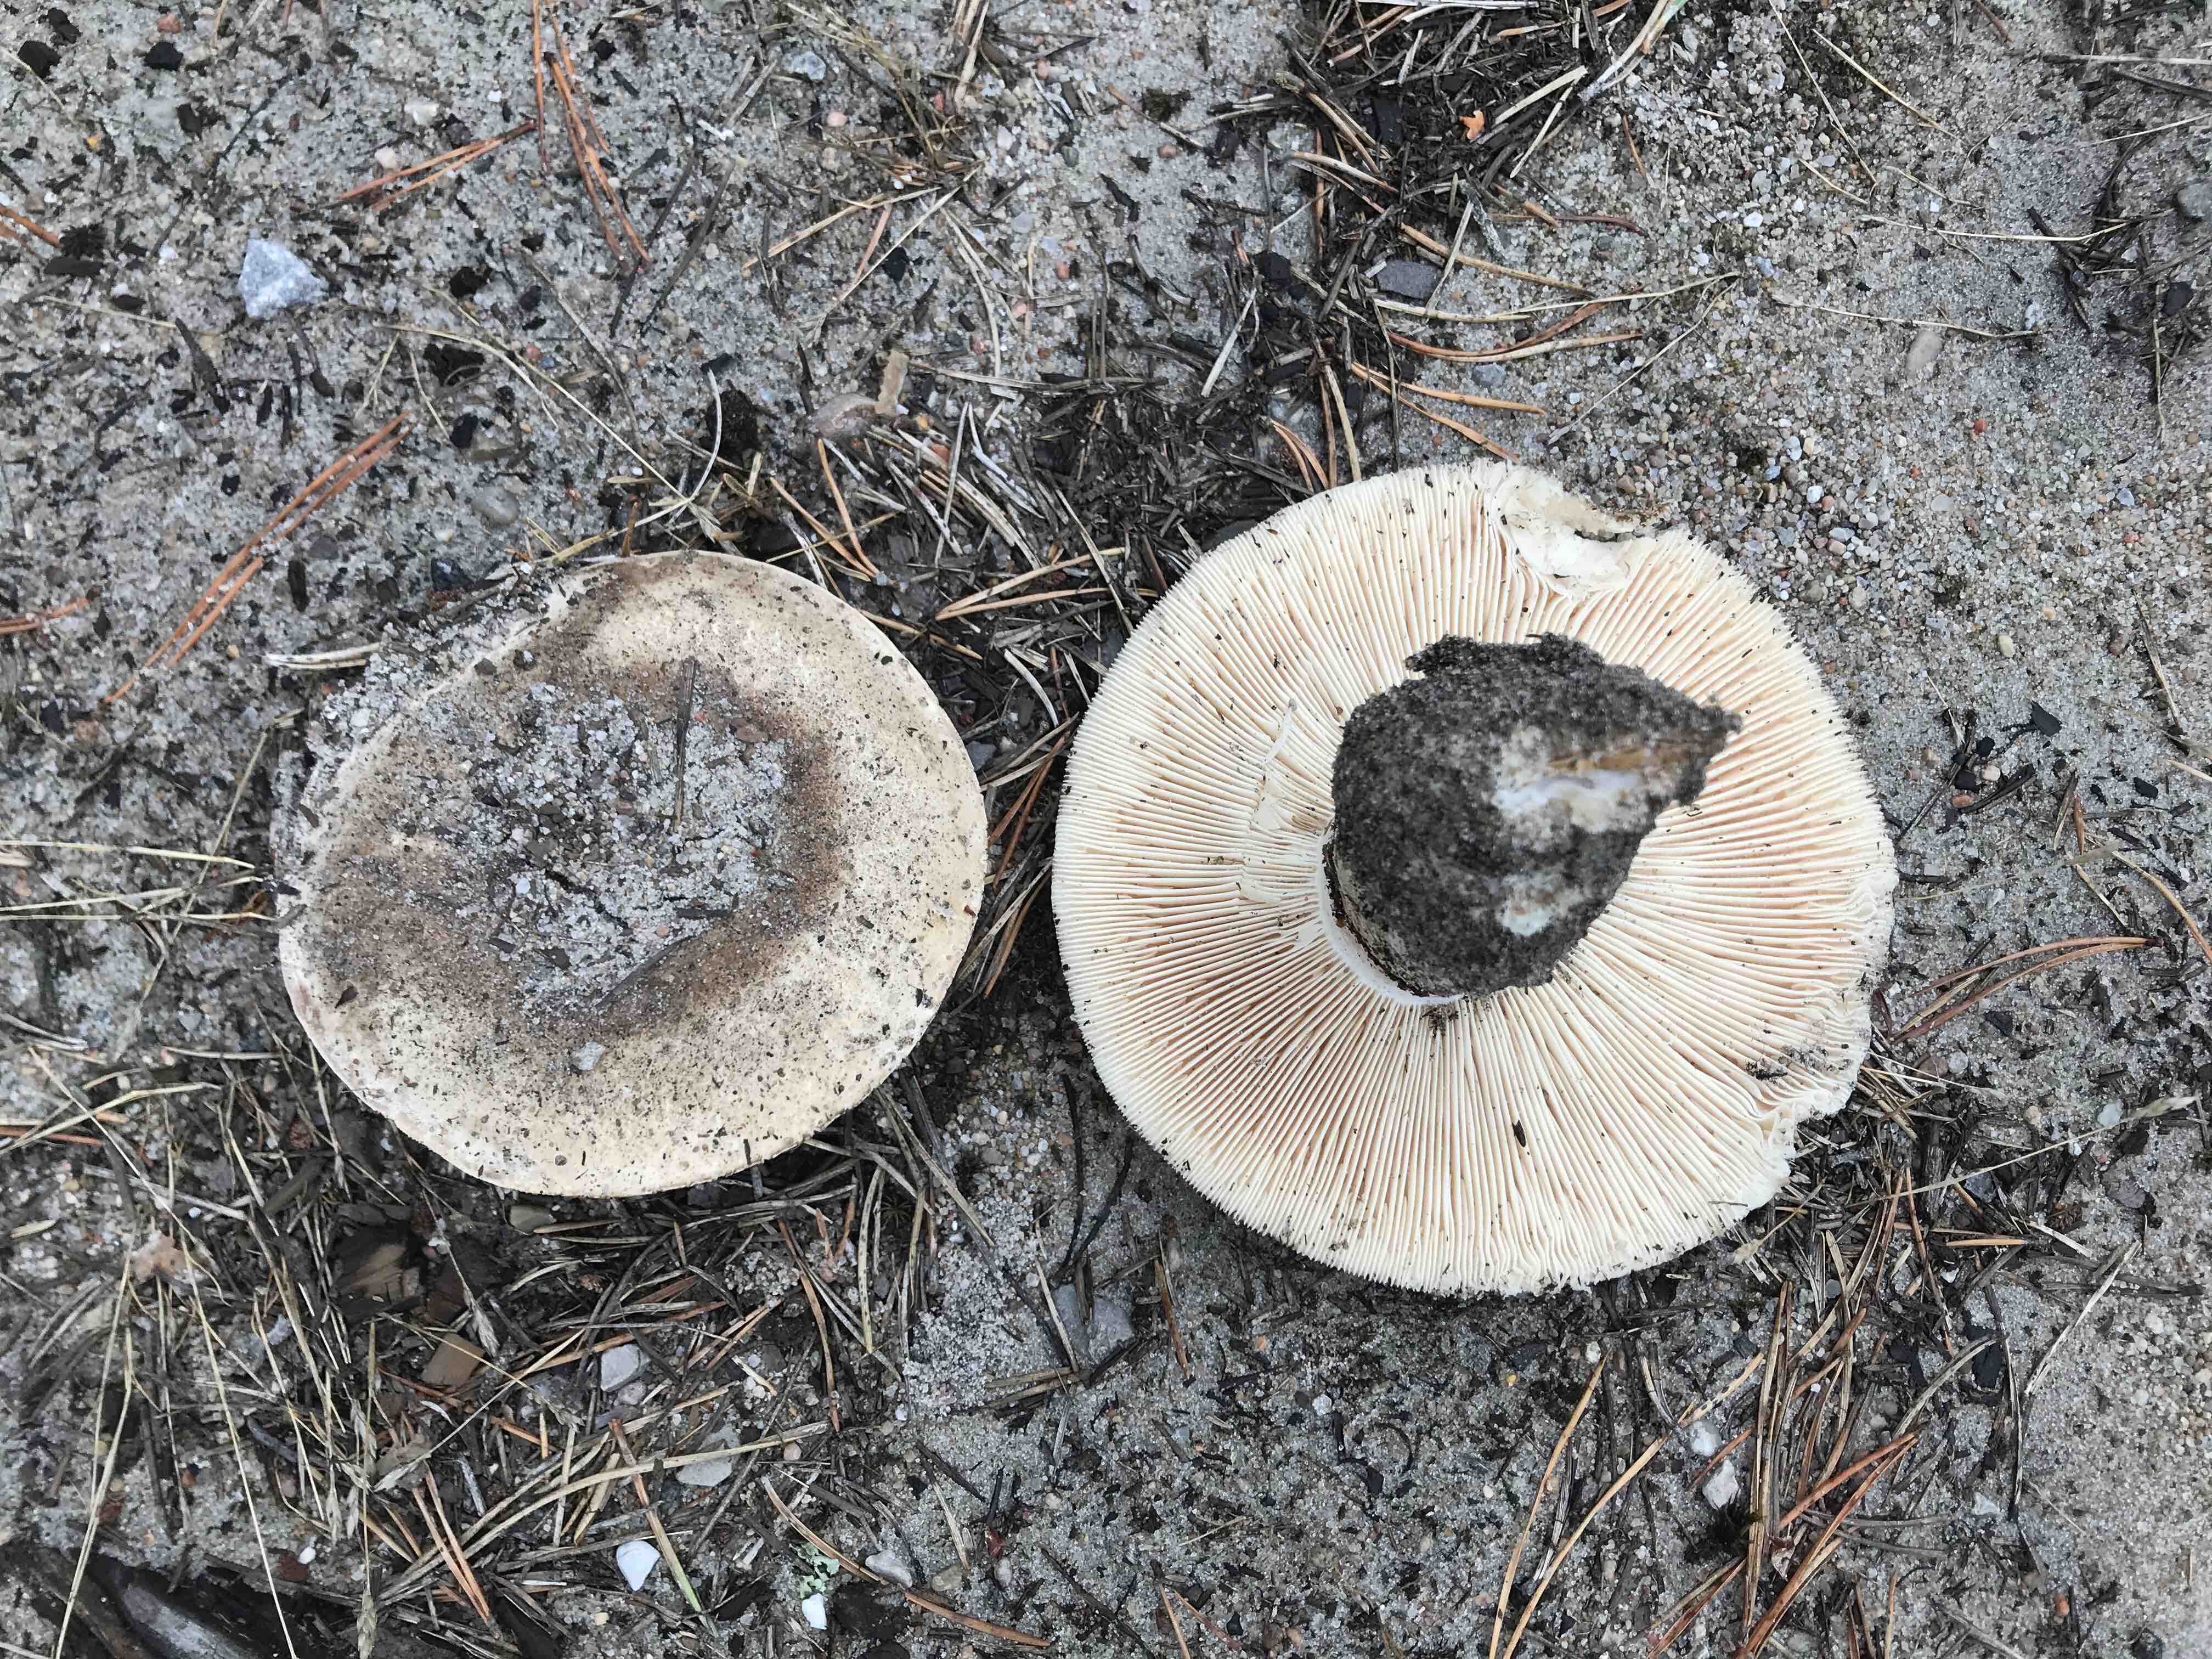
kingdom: Fungi
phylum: Basidiomycota
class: Agaricomycetes
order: Russulales
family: Russulaceae
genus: Russula
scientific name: Russula adusta
